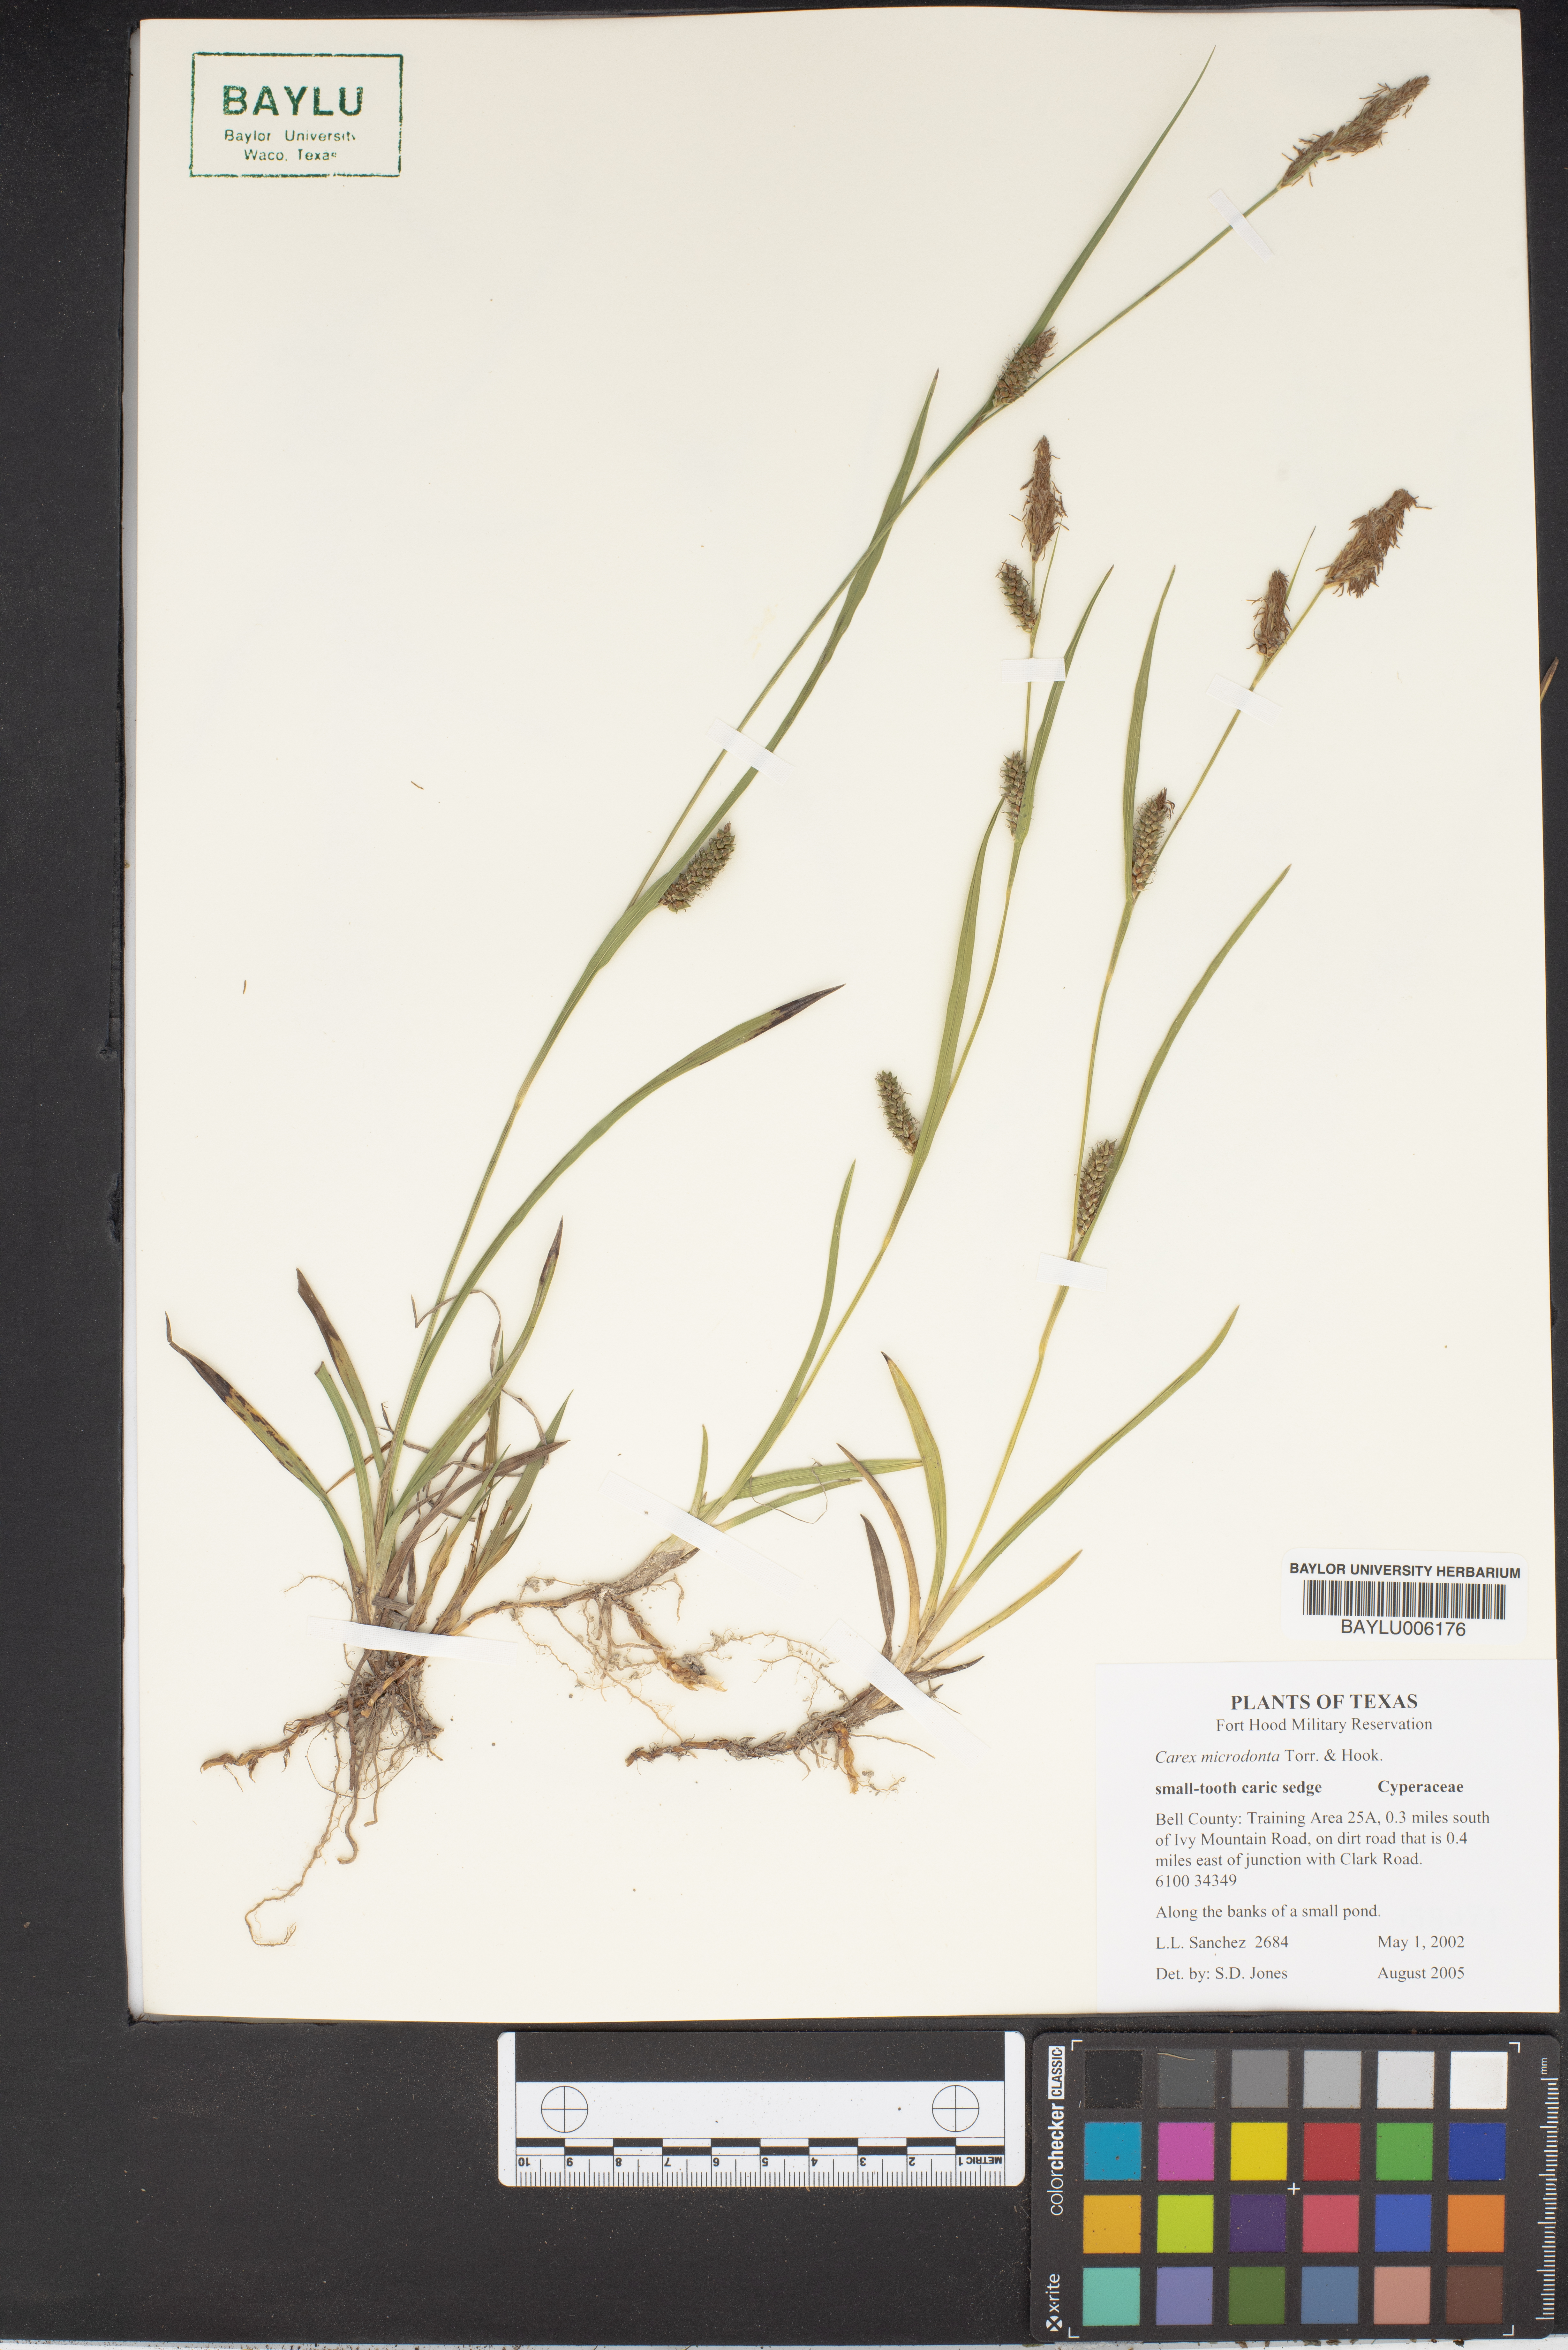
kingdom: Plantae
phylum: Tracheophyta
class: Liliopsida
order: Poales
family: Cyperaceae
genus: Carex
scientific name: Carex microdonta
